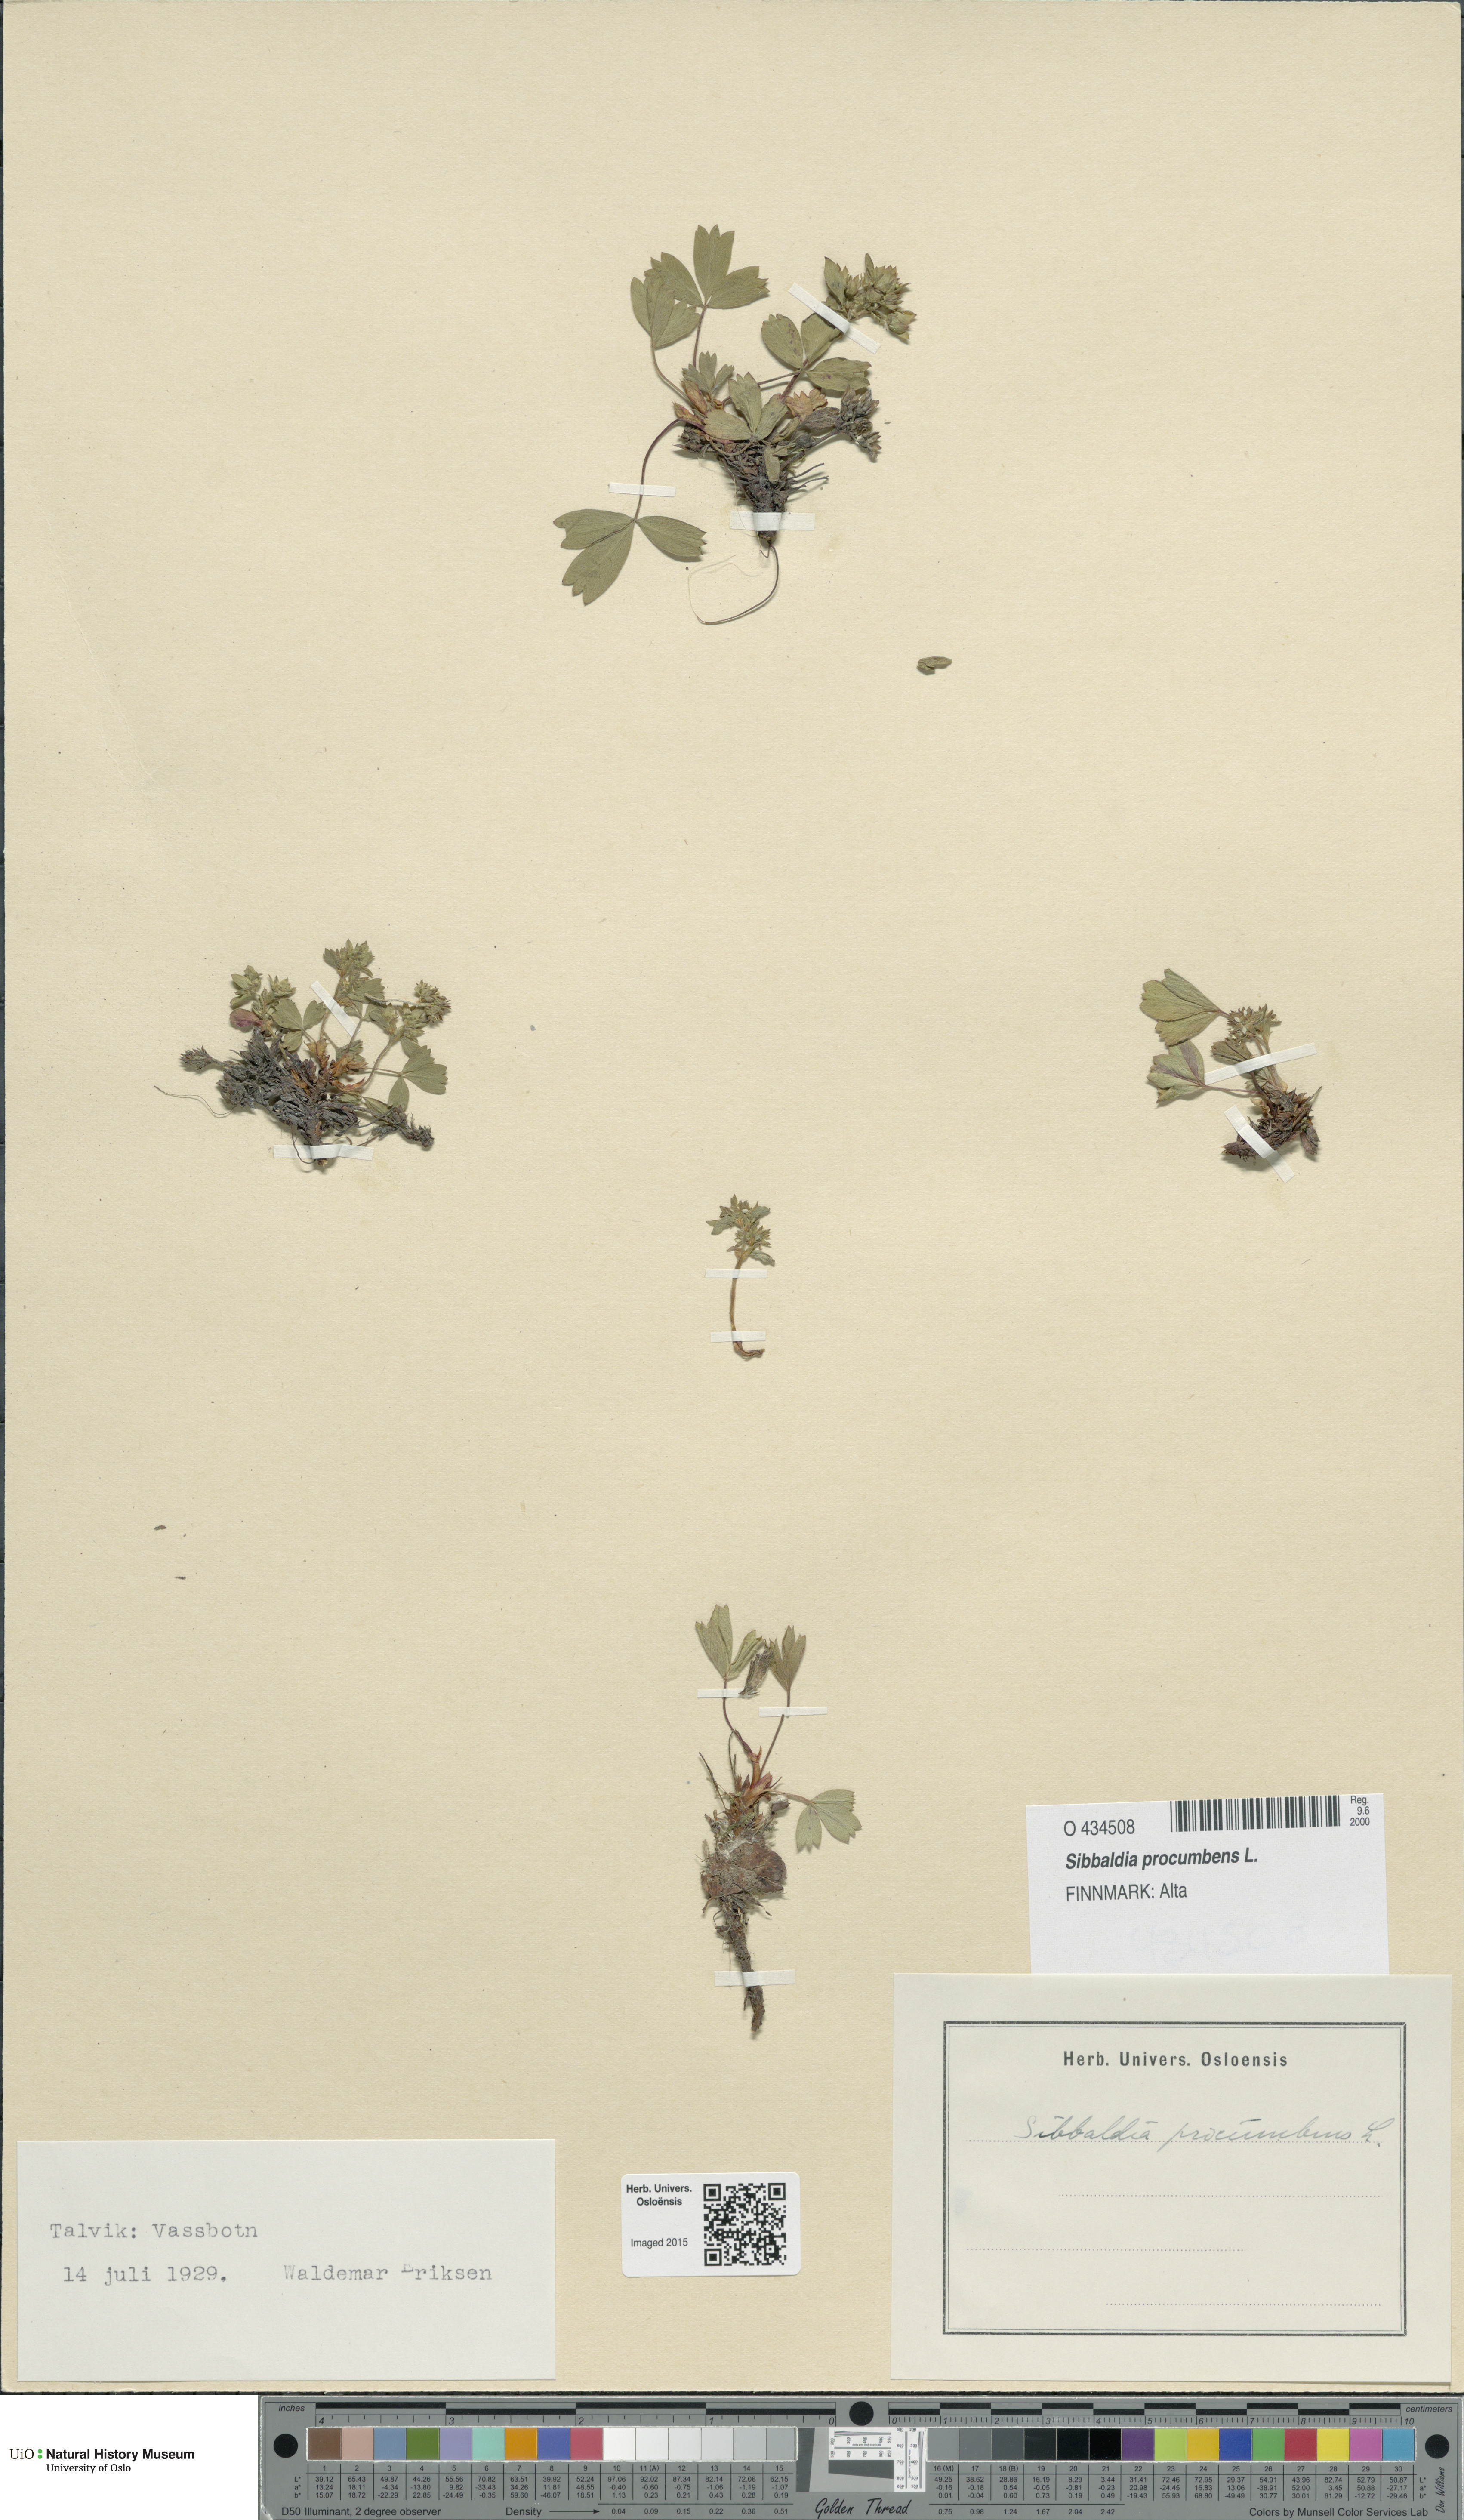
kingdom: Plantae
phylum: Tracheophyta
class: Magnoliopsida
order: Rosales
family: Rosaceae
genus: Sibbaldia
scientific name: Sibbaldia procumbens
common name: Creeping sibbaldia
